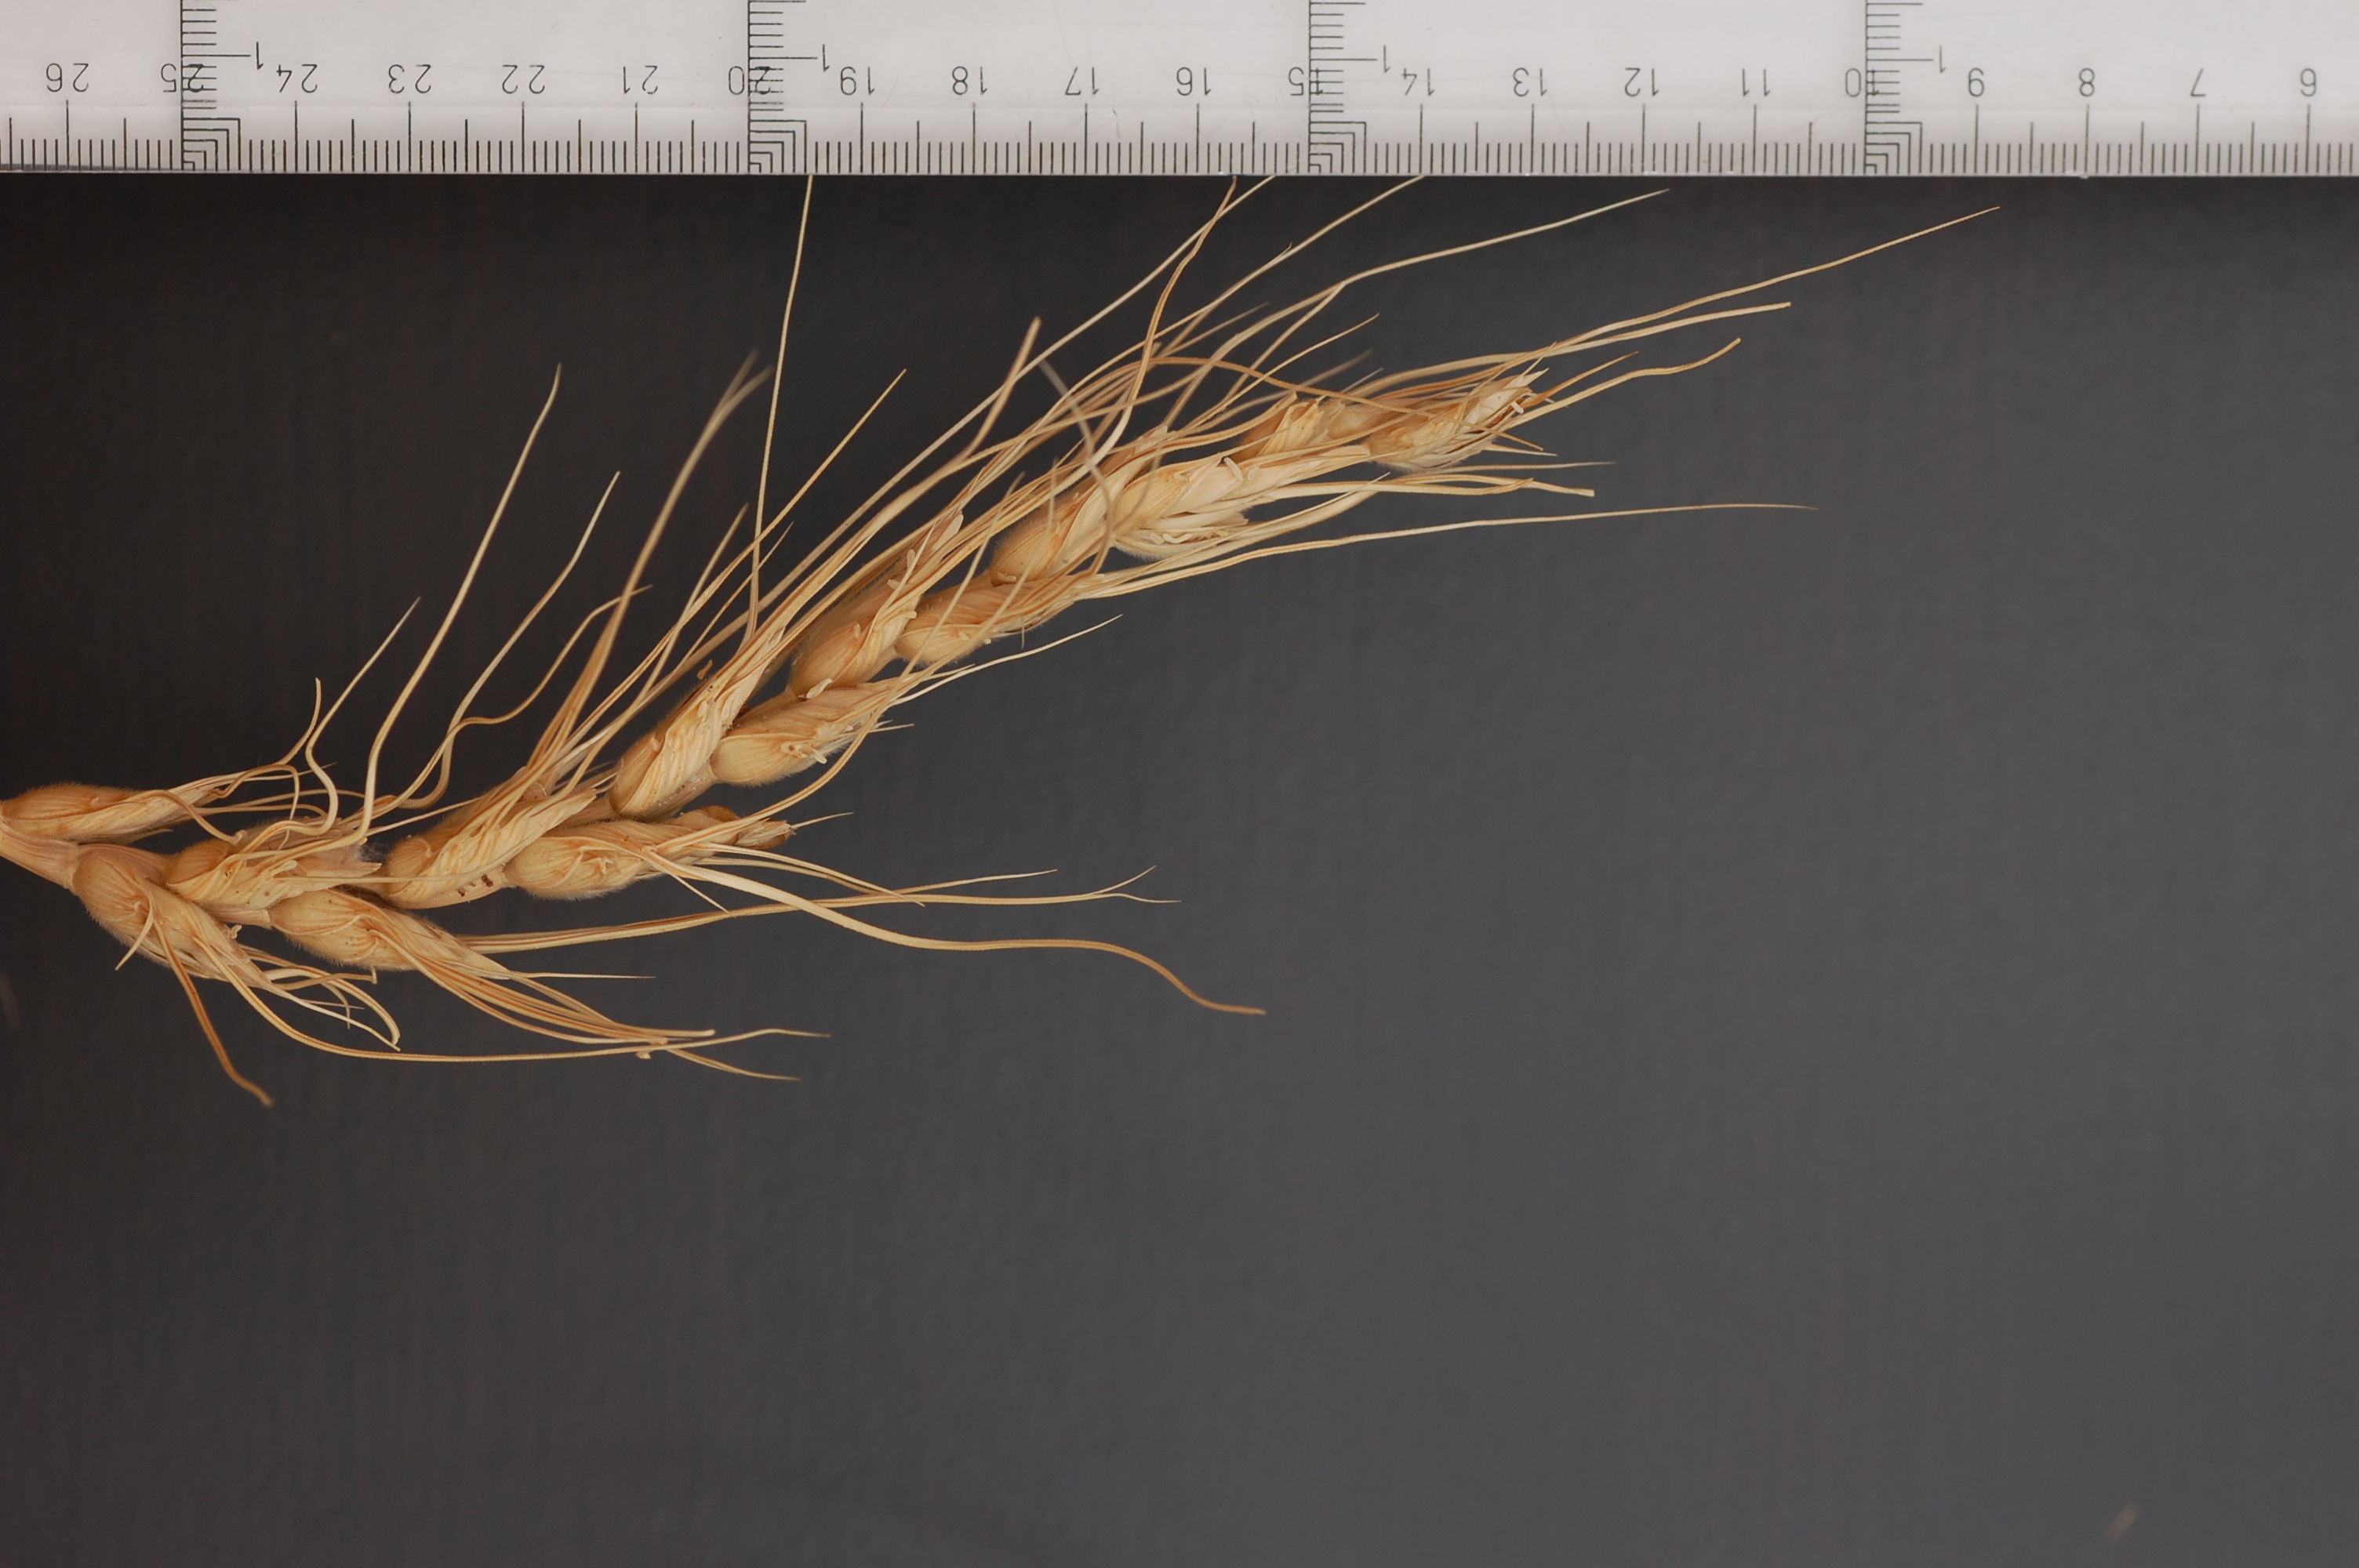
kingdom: Plantae
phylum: Tracheophyta
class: Liliopsida
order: Poales
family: Poaceae
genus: Triticum
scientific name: Triticum aestivum
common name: Common wheat
